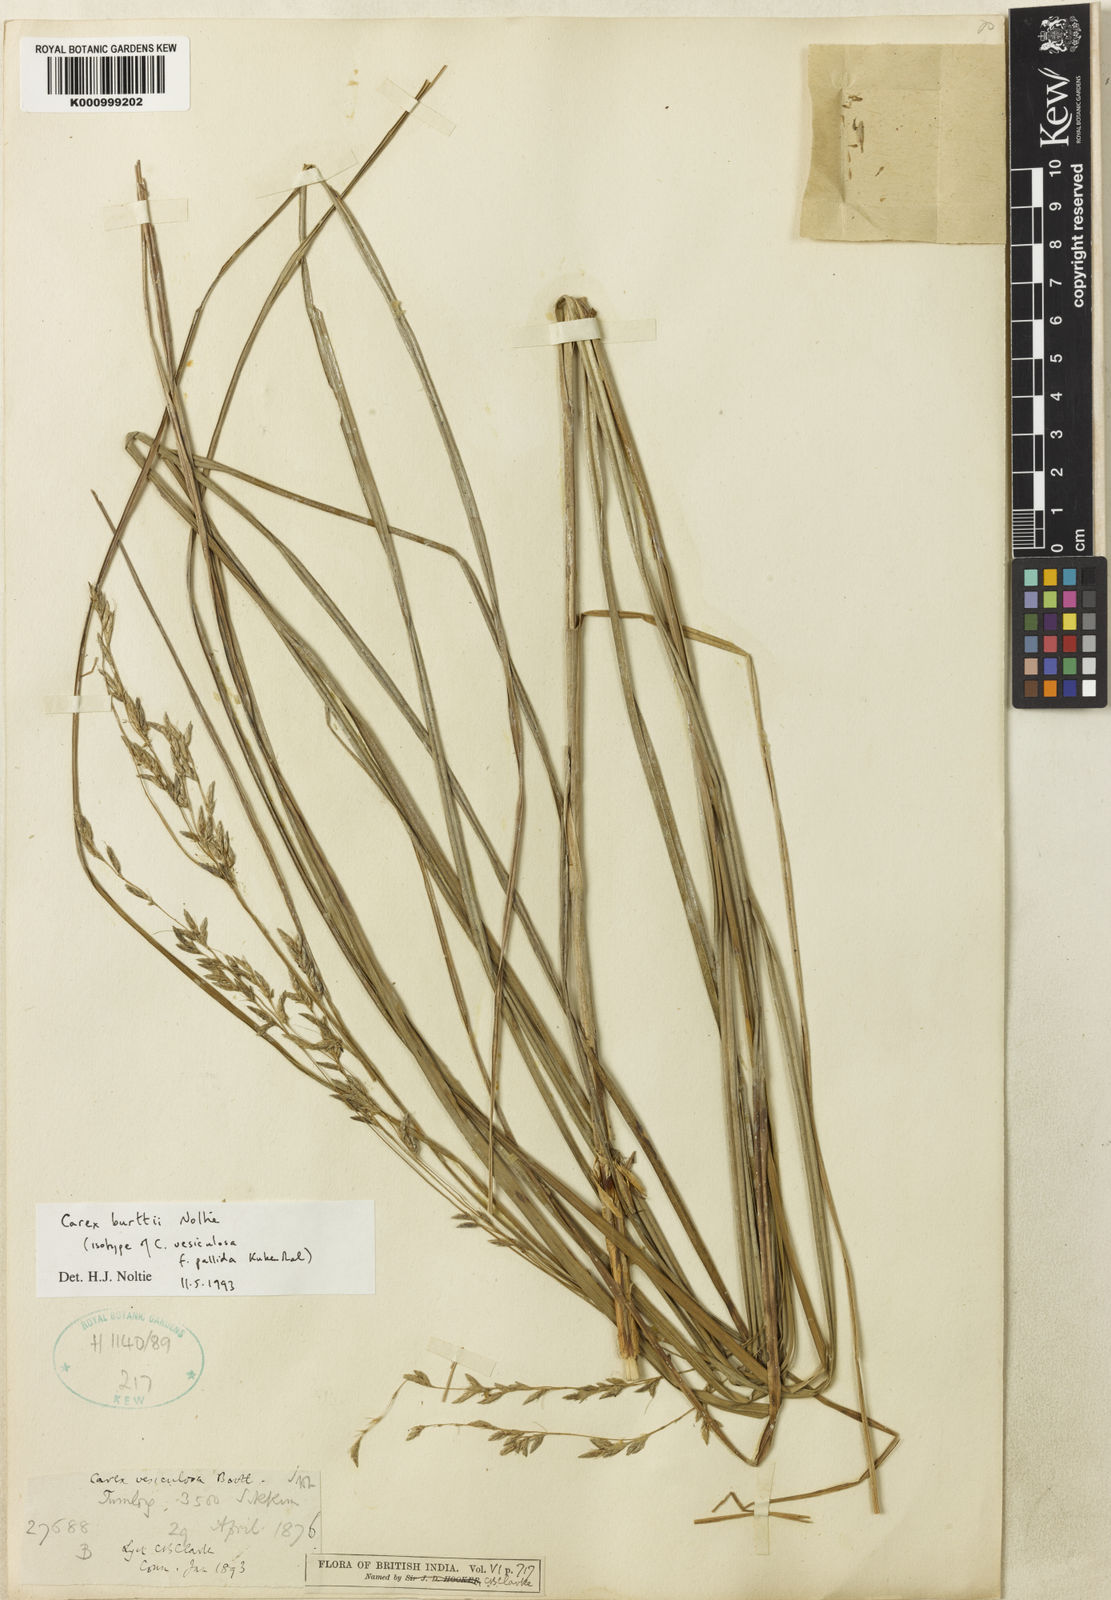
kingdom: Plantae
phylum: Tracheophyta
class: Liliopsida
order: Poales
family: Cyperaceae
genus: Carex
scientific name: Carex burttii
